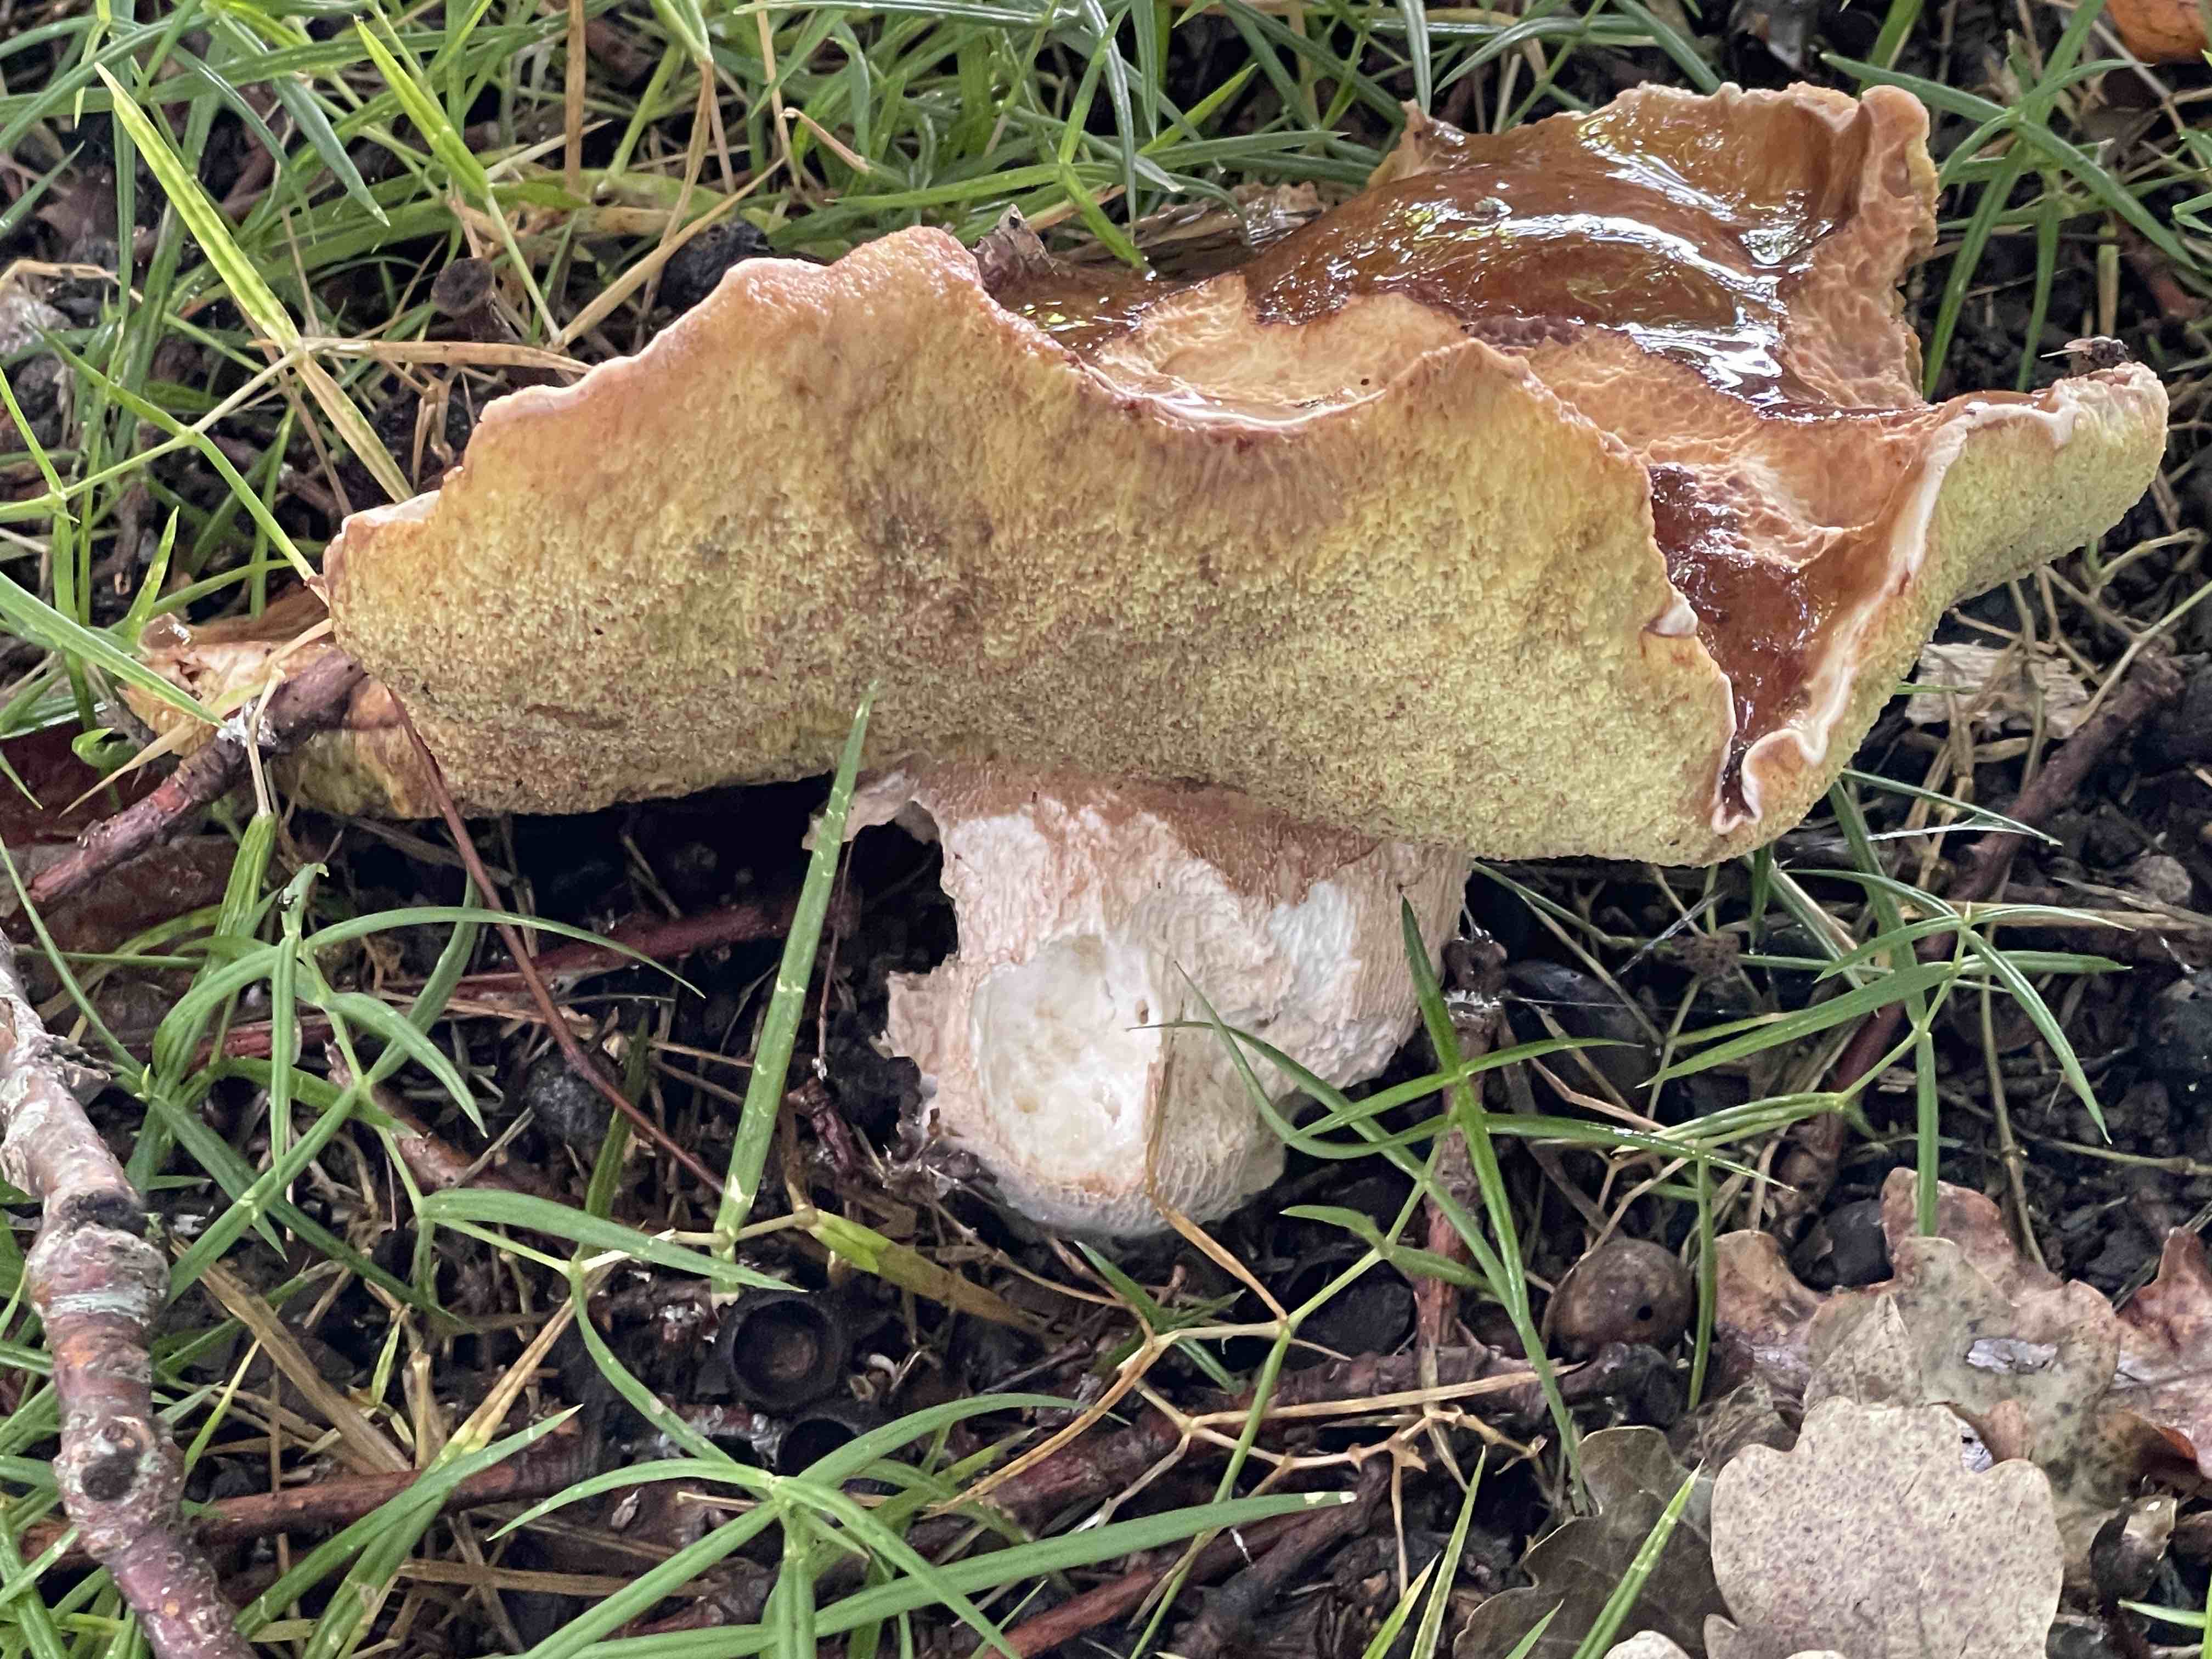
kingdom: Fungi
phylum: Basidiomycota
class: Agaricomycetes
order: Boletales
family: Boletaceae
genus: Boletus
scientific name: Boletus edulis
